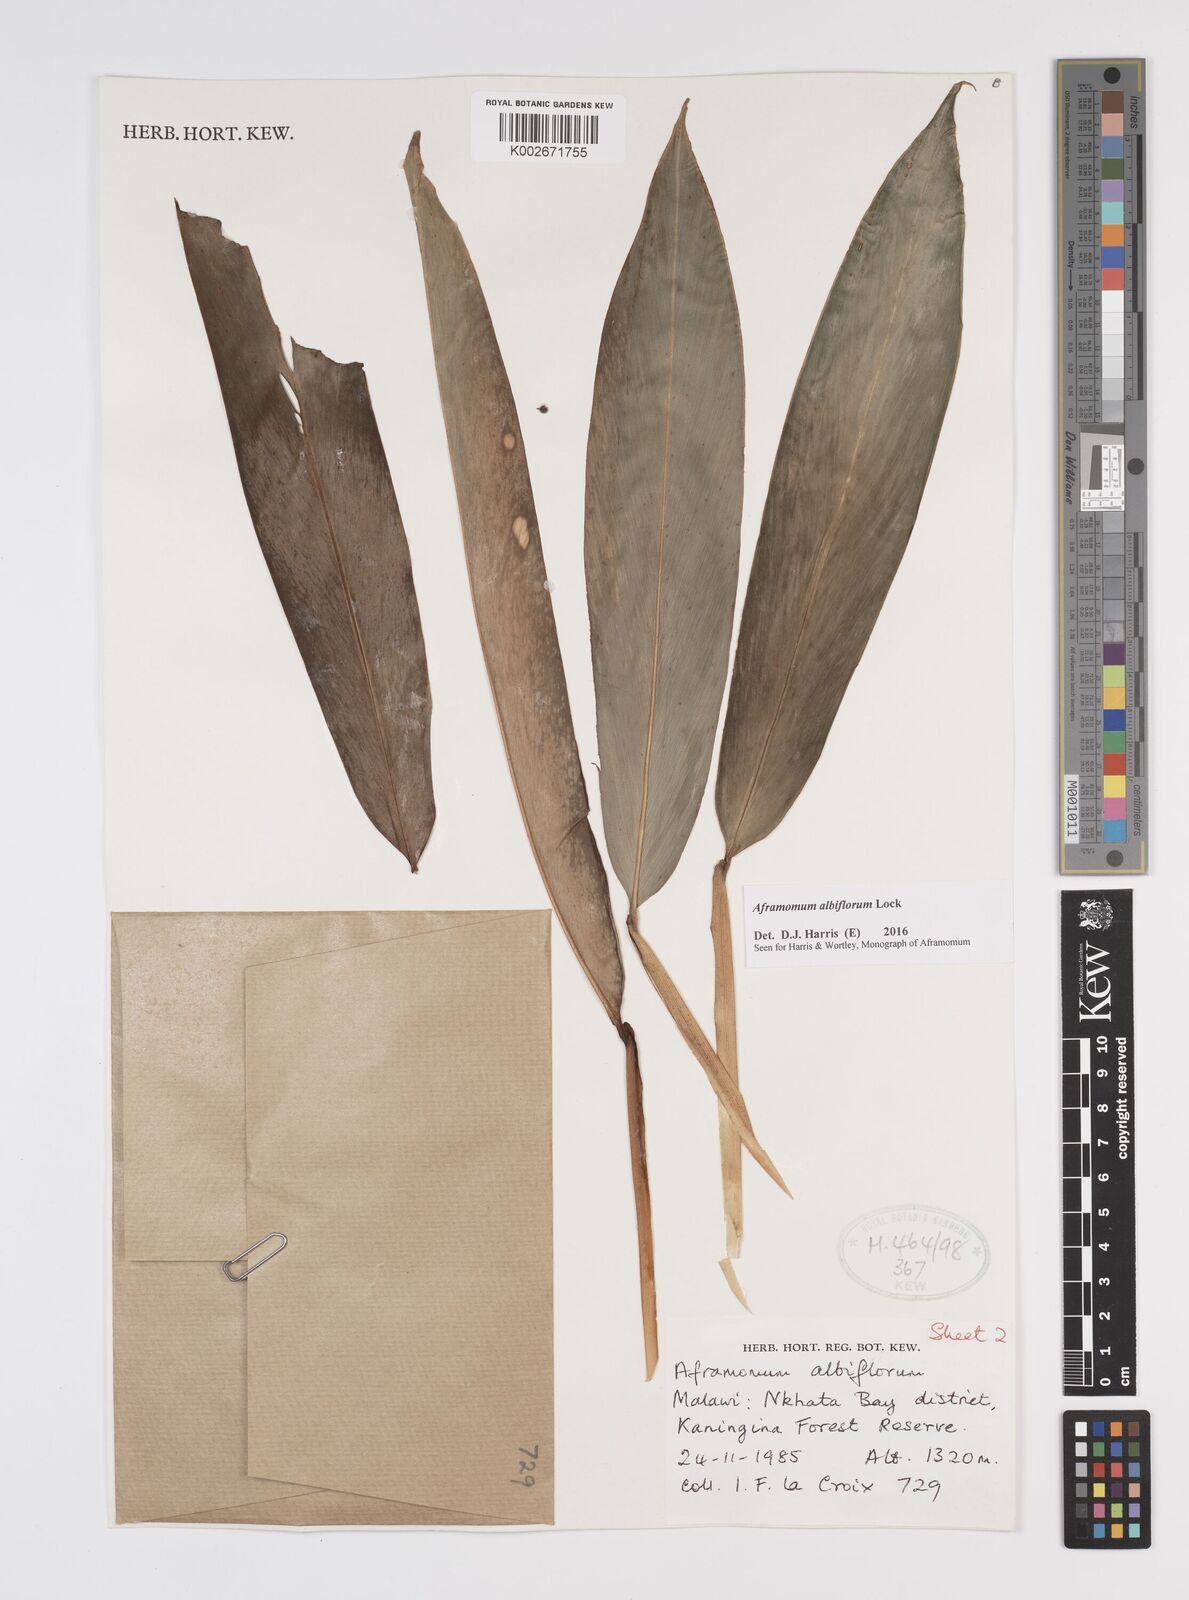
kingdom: Plantae
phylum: Tracheophyta
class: Liliopsida
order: Zingiberales
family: Zingiberaceae
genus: Aframomum
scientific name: Aframomum albiflorum
